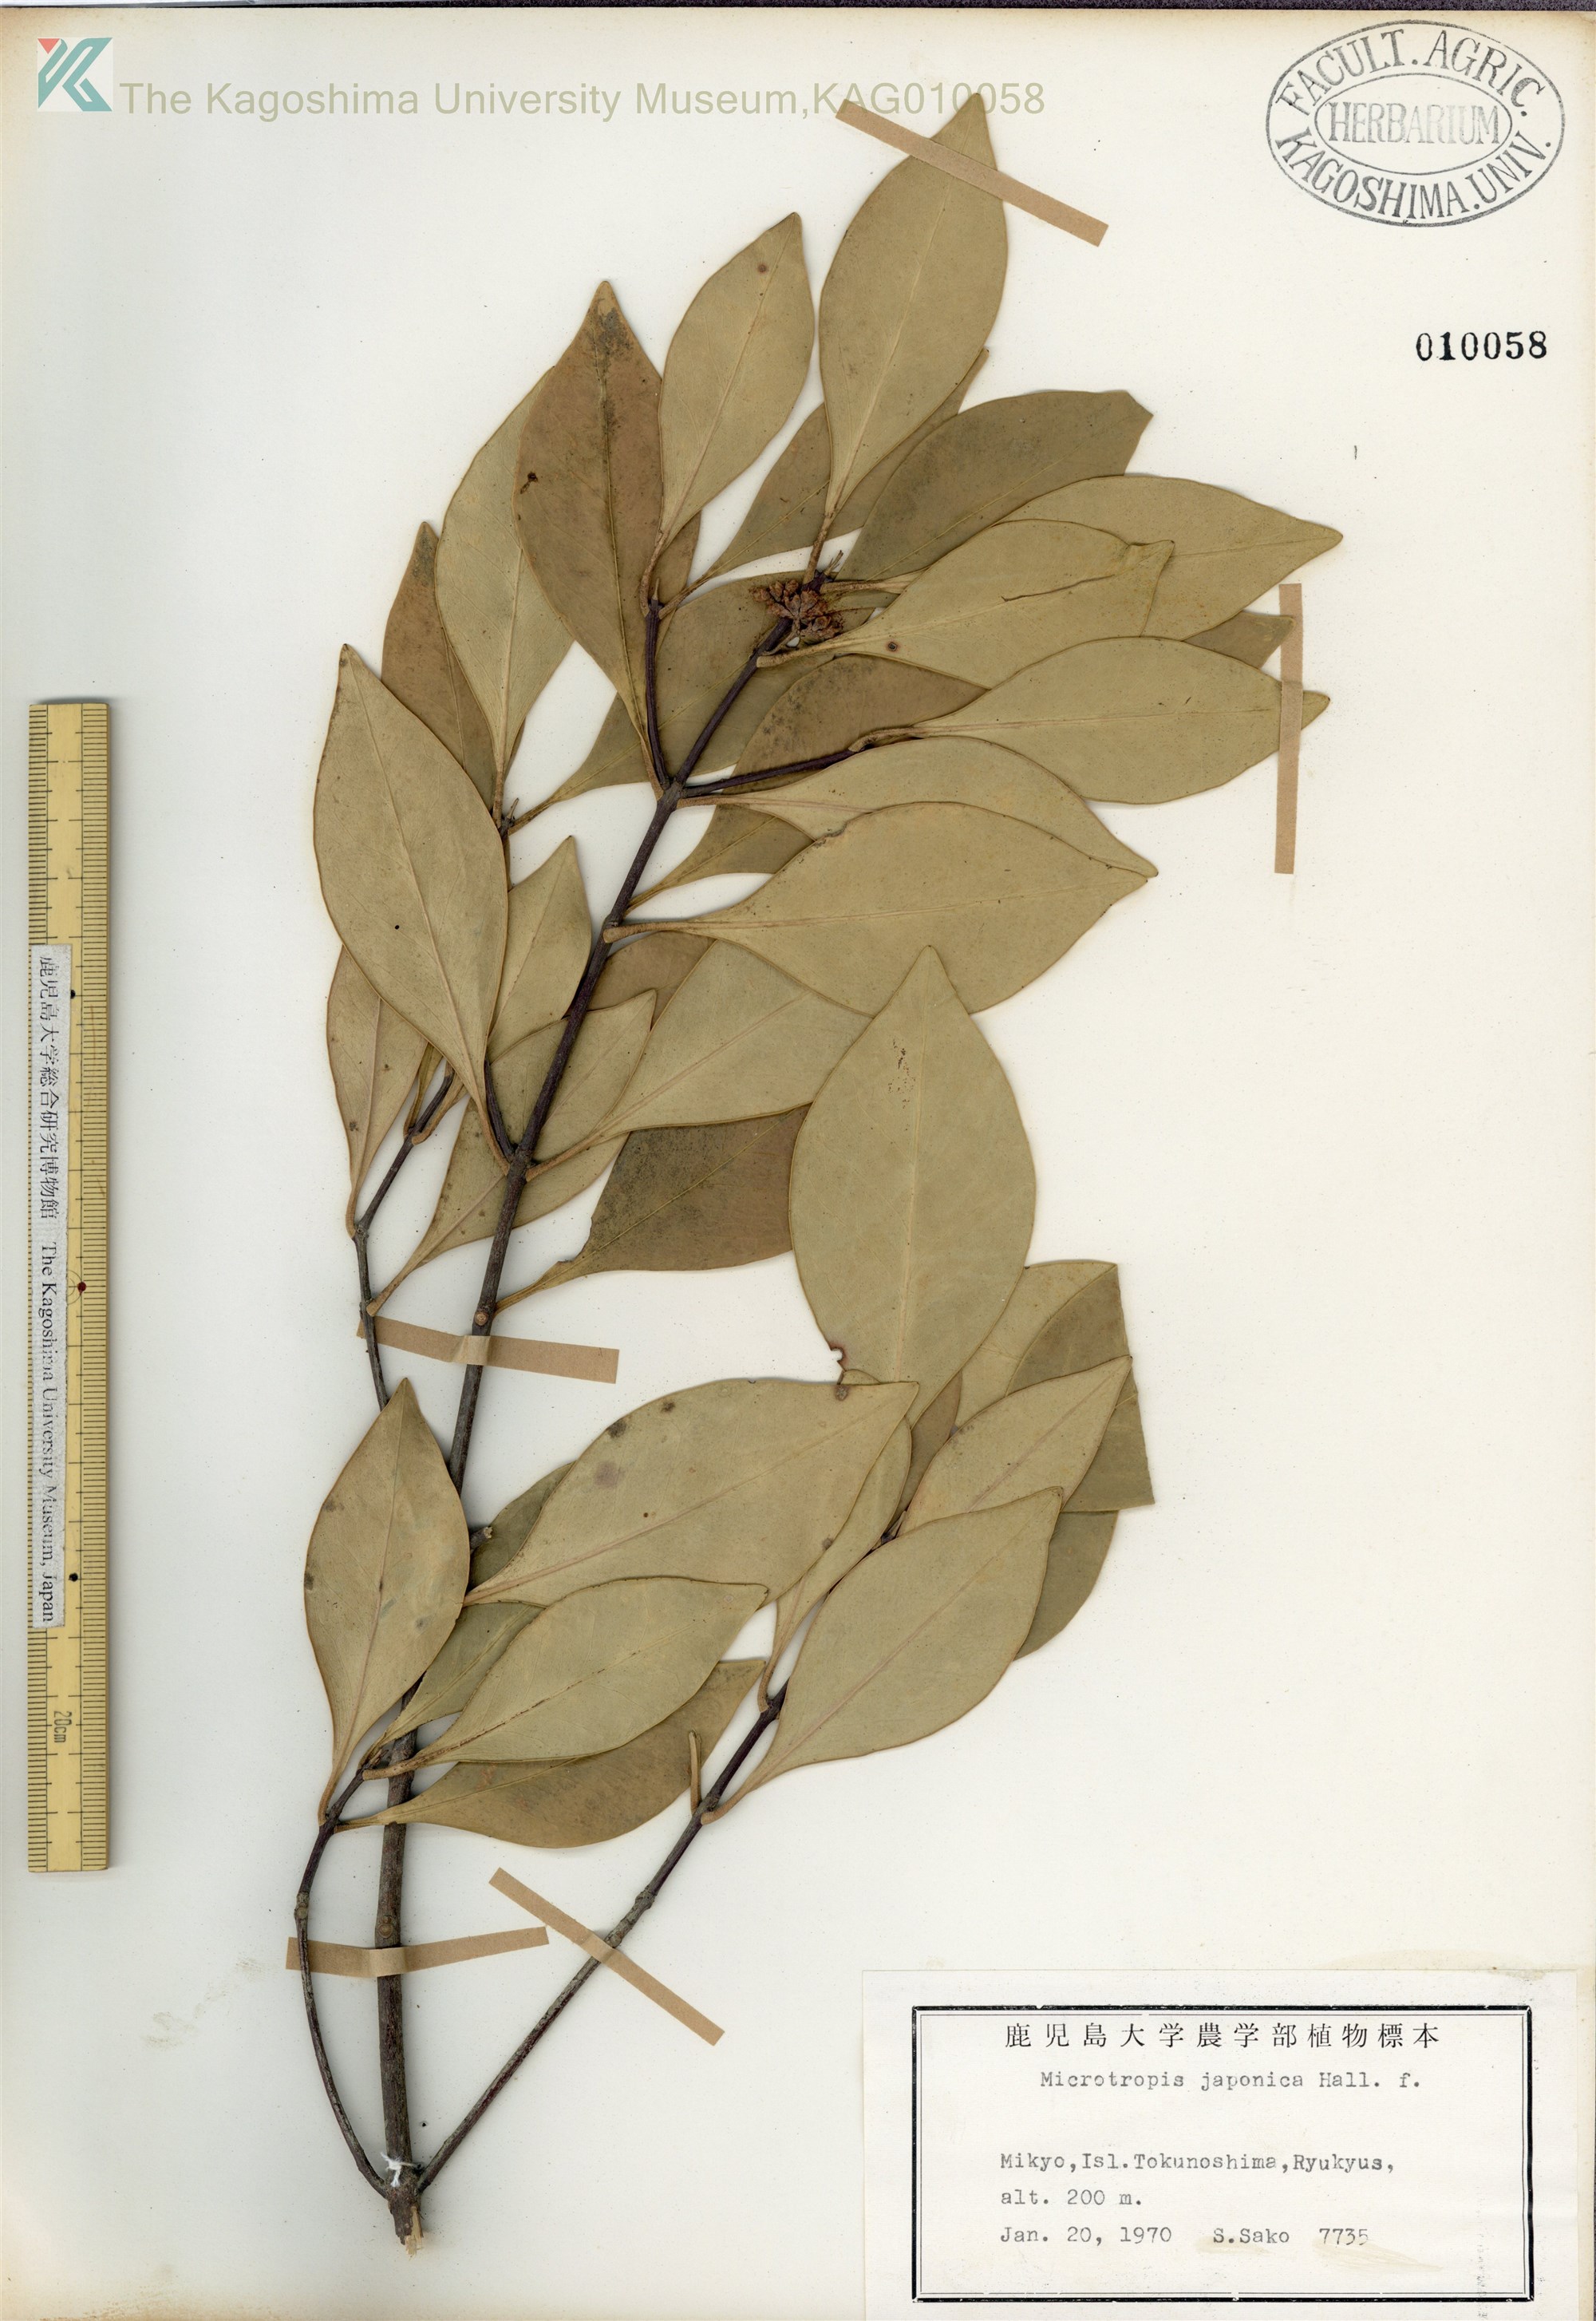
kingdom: Plantae
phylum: Tracheophyta
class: Magnoliopsida
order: Celastrales
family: Celastraceae
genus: Microtropis
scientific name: Microtropis japonica
